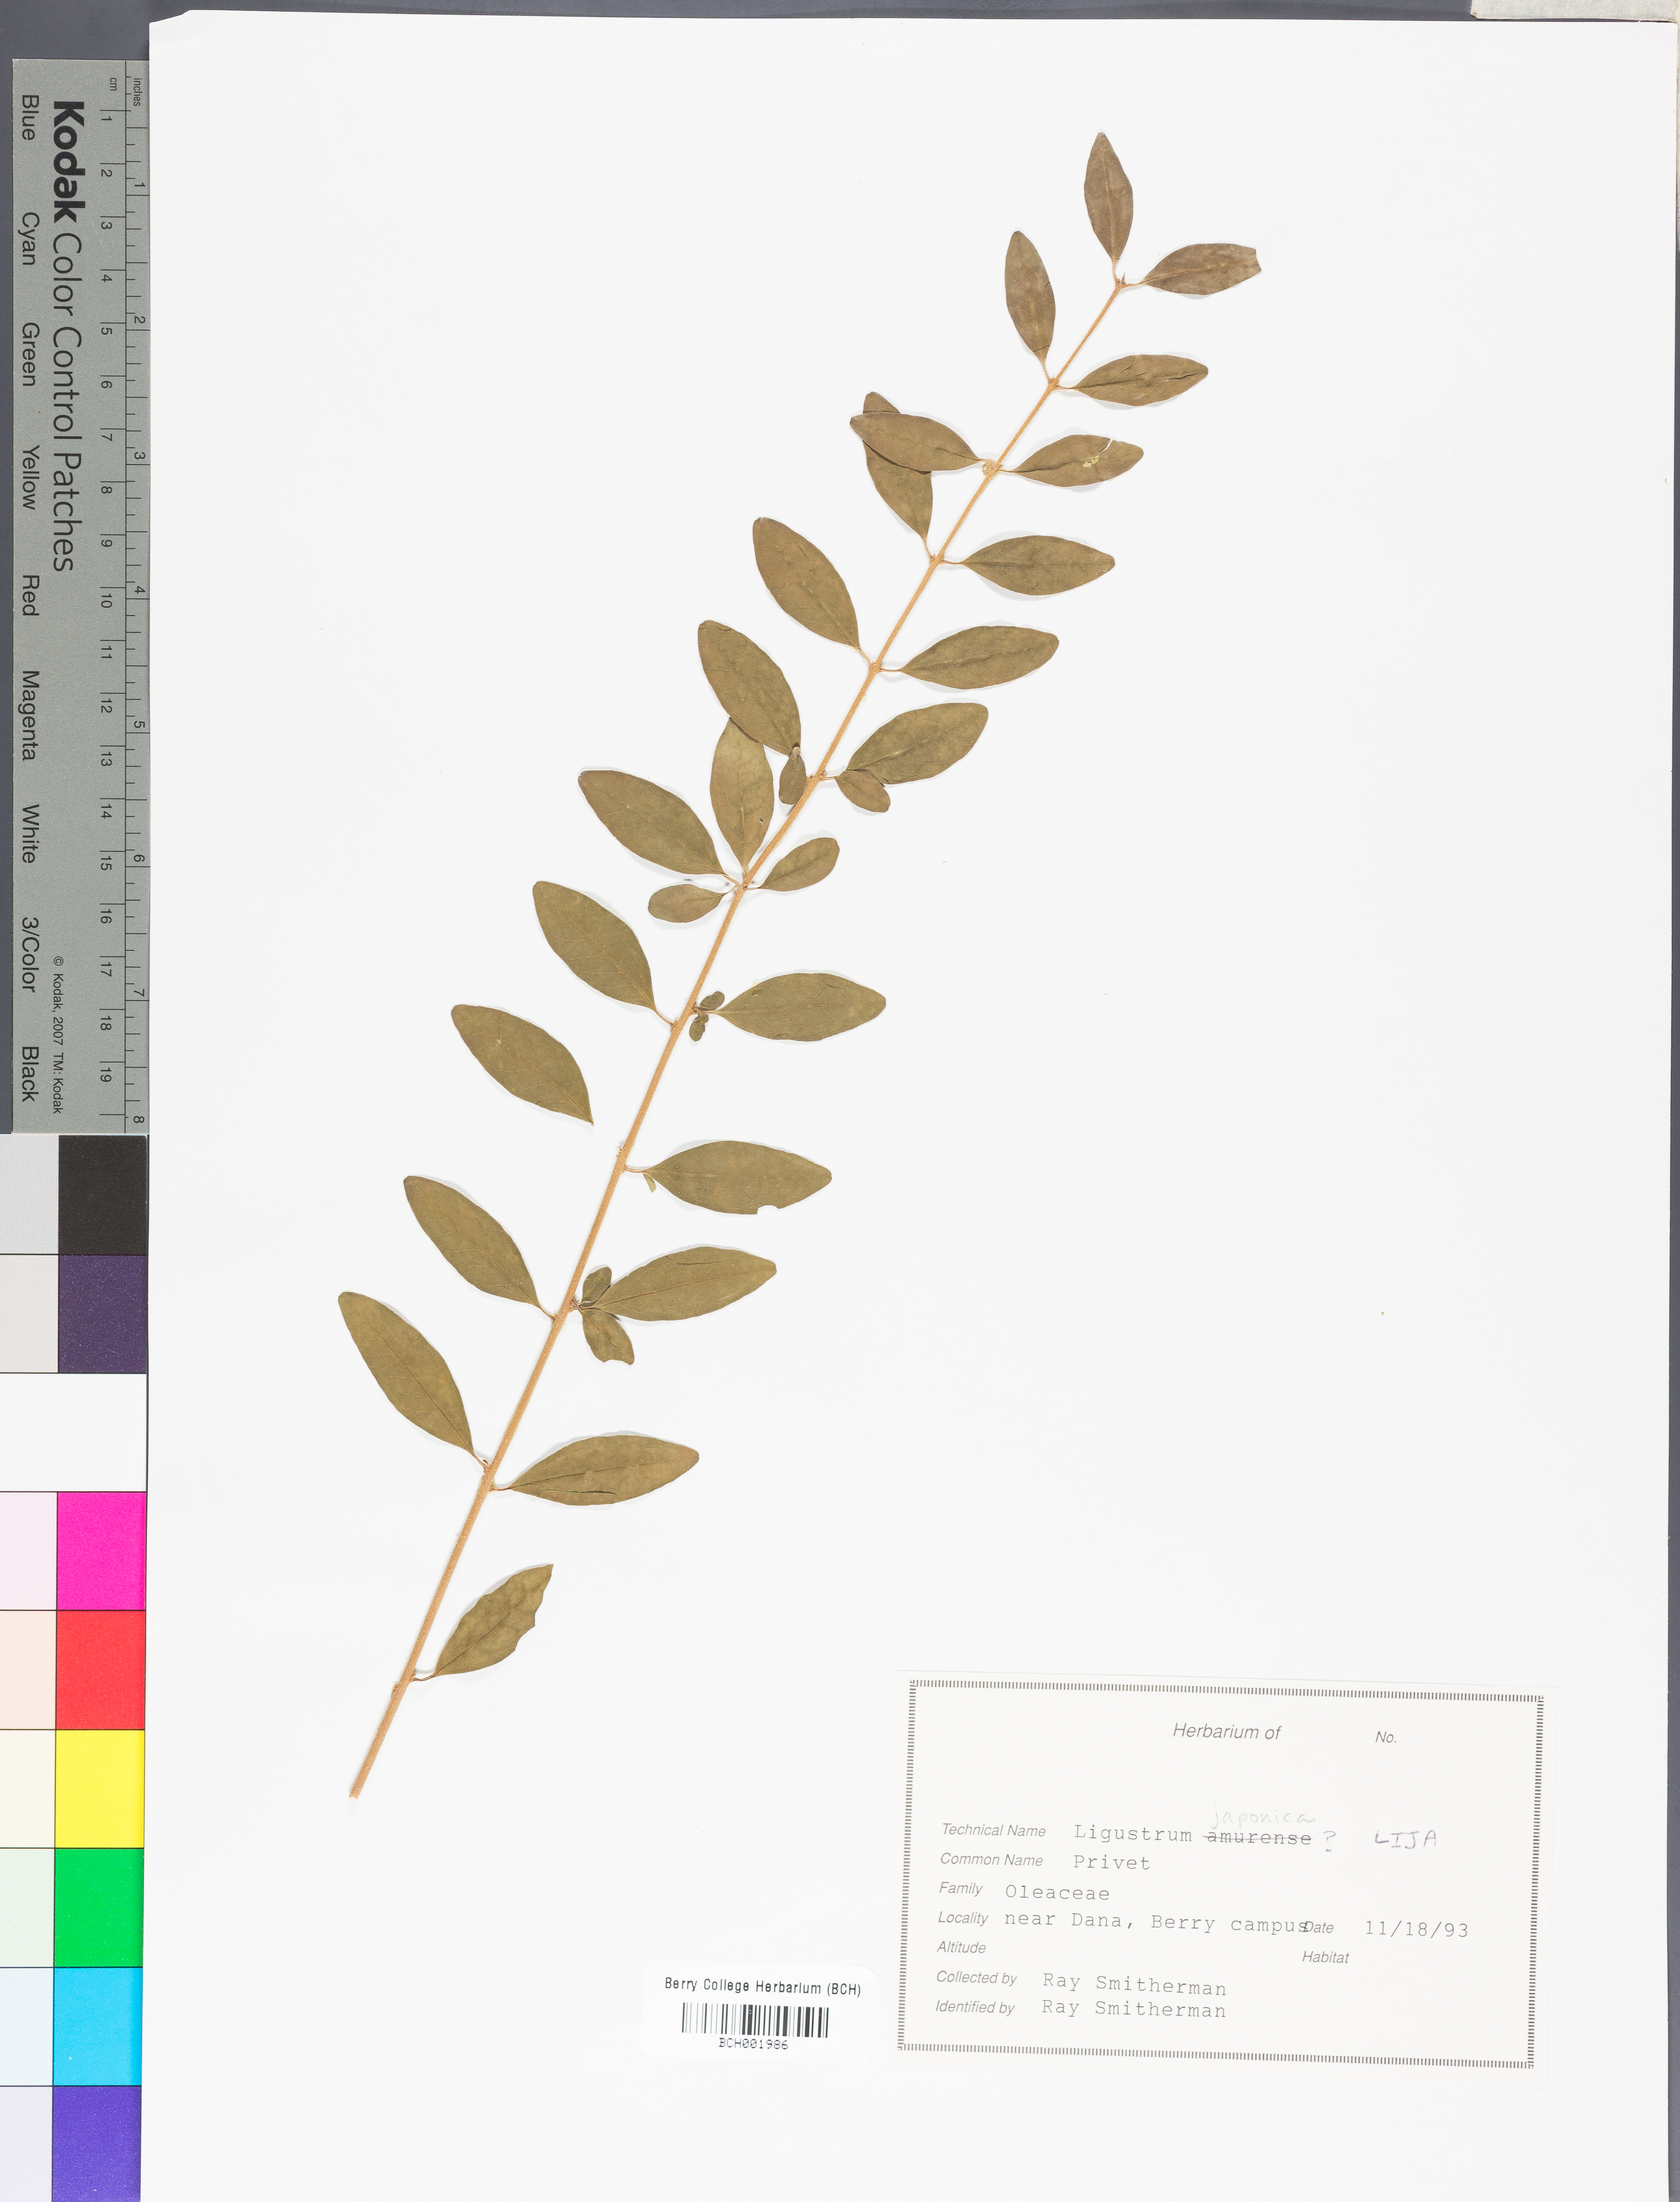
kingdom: Plantae
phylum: Tracheophyta
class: Magnoliopsida
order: Lamiales
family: Oleaceae
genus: Ligustrum
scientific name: Ligustrum japonicum
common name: Japanese privet
